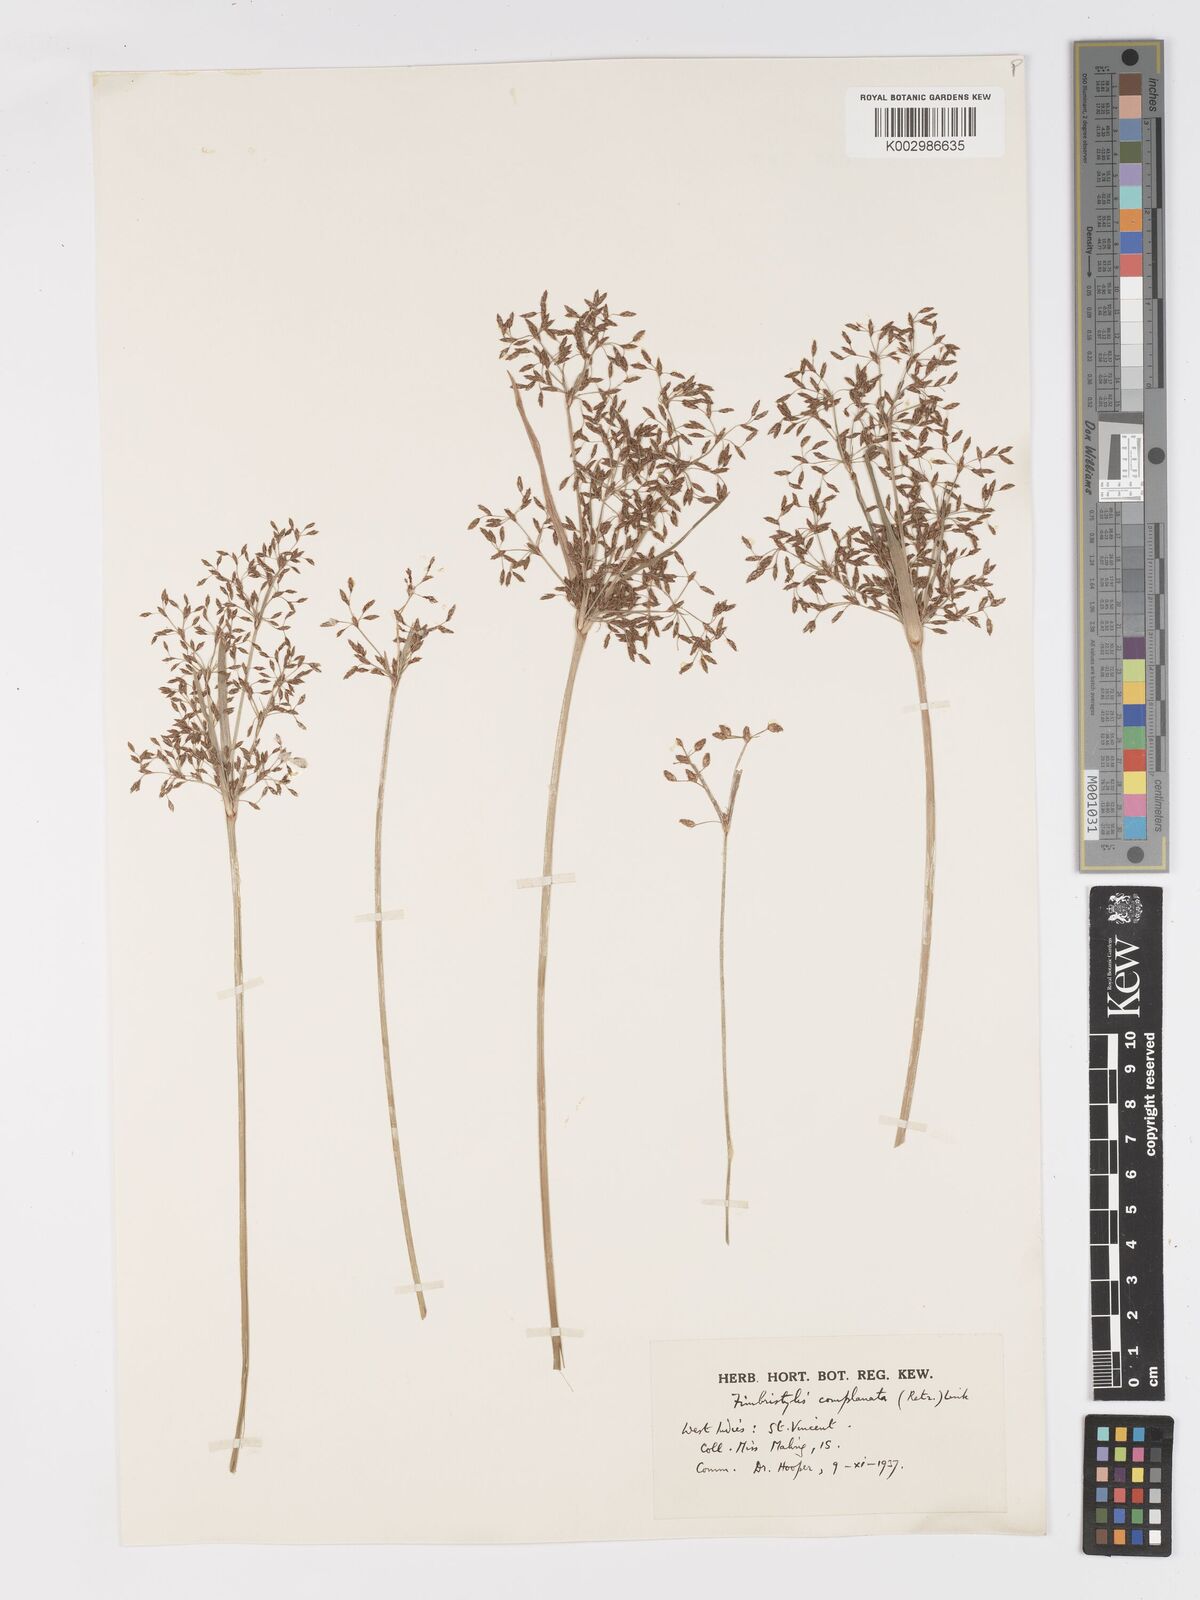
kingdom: Plantae
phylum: Tracheophyta
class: Liliopsida
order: Poales
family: Cyperaceae
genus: Fimbristylis
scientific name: Fimbristylis complanata
